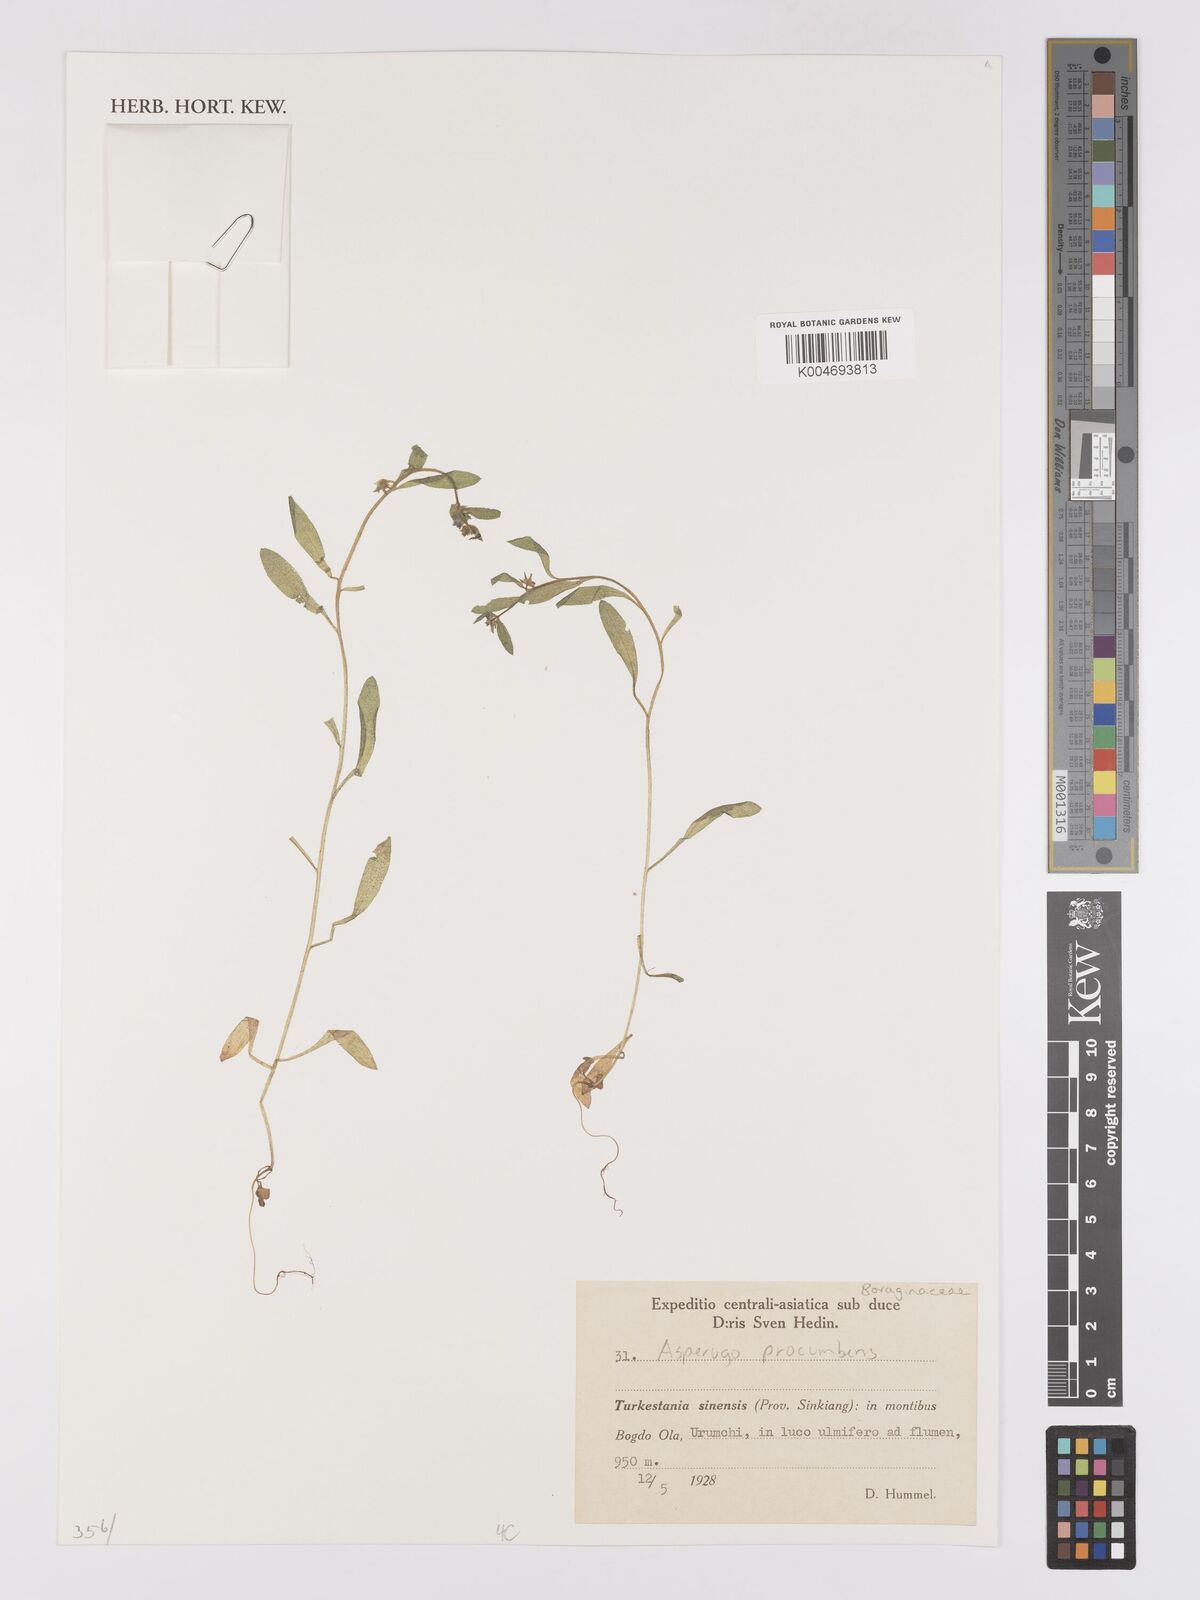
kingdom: Plantae
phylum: Tracheophyta
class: Magnoliopsida
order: Boraginales
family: Boraginaceae
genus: Asperugo
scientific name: Asperugo procumbens
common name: Madwort
